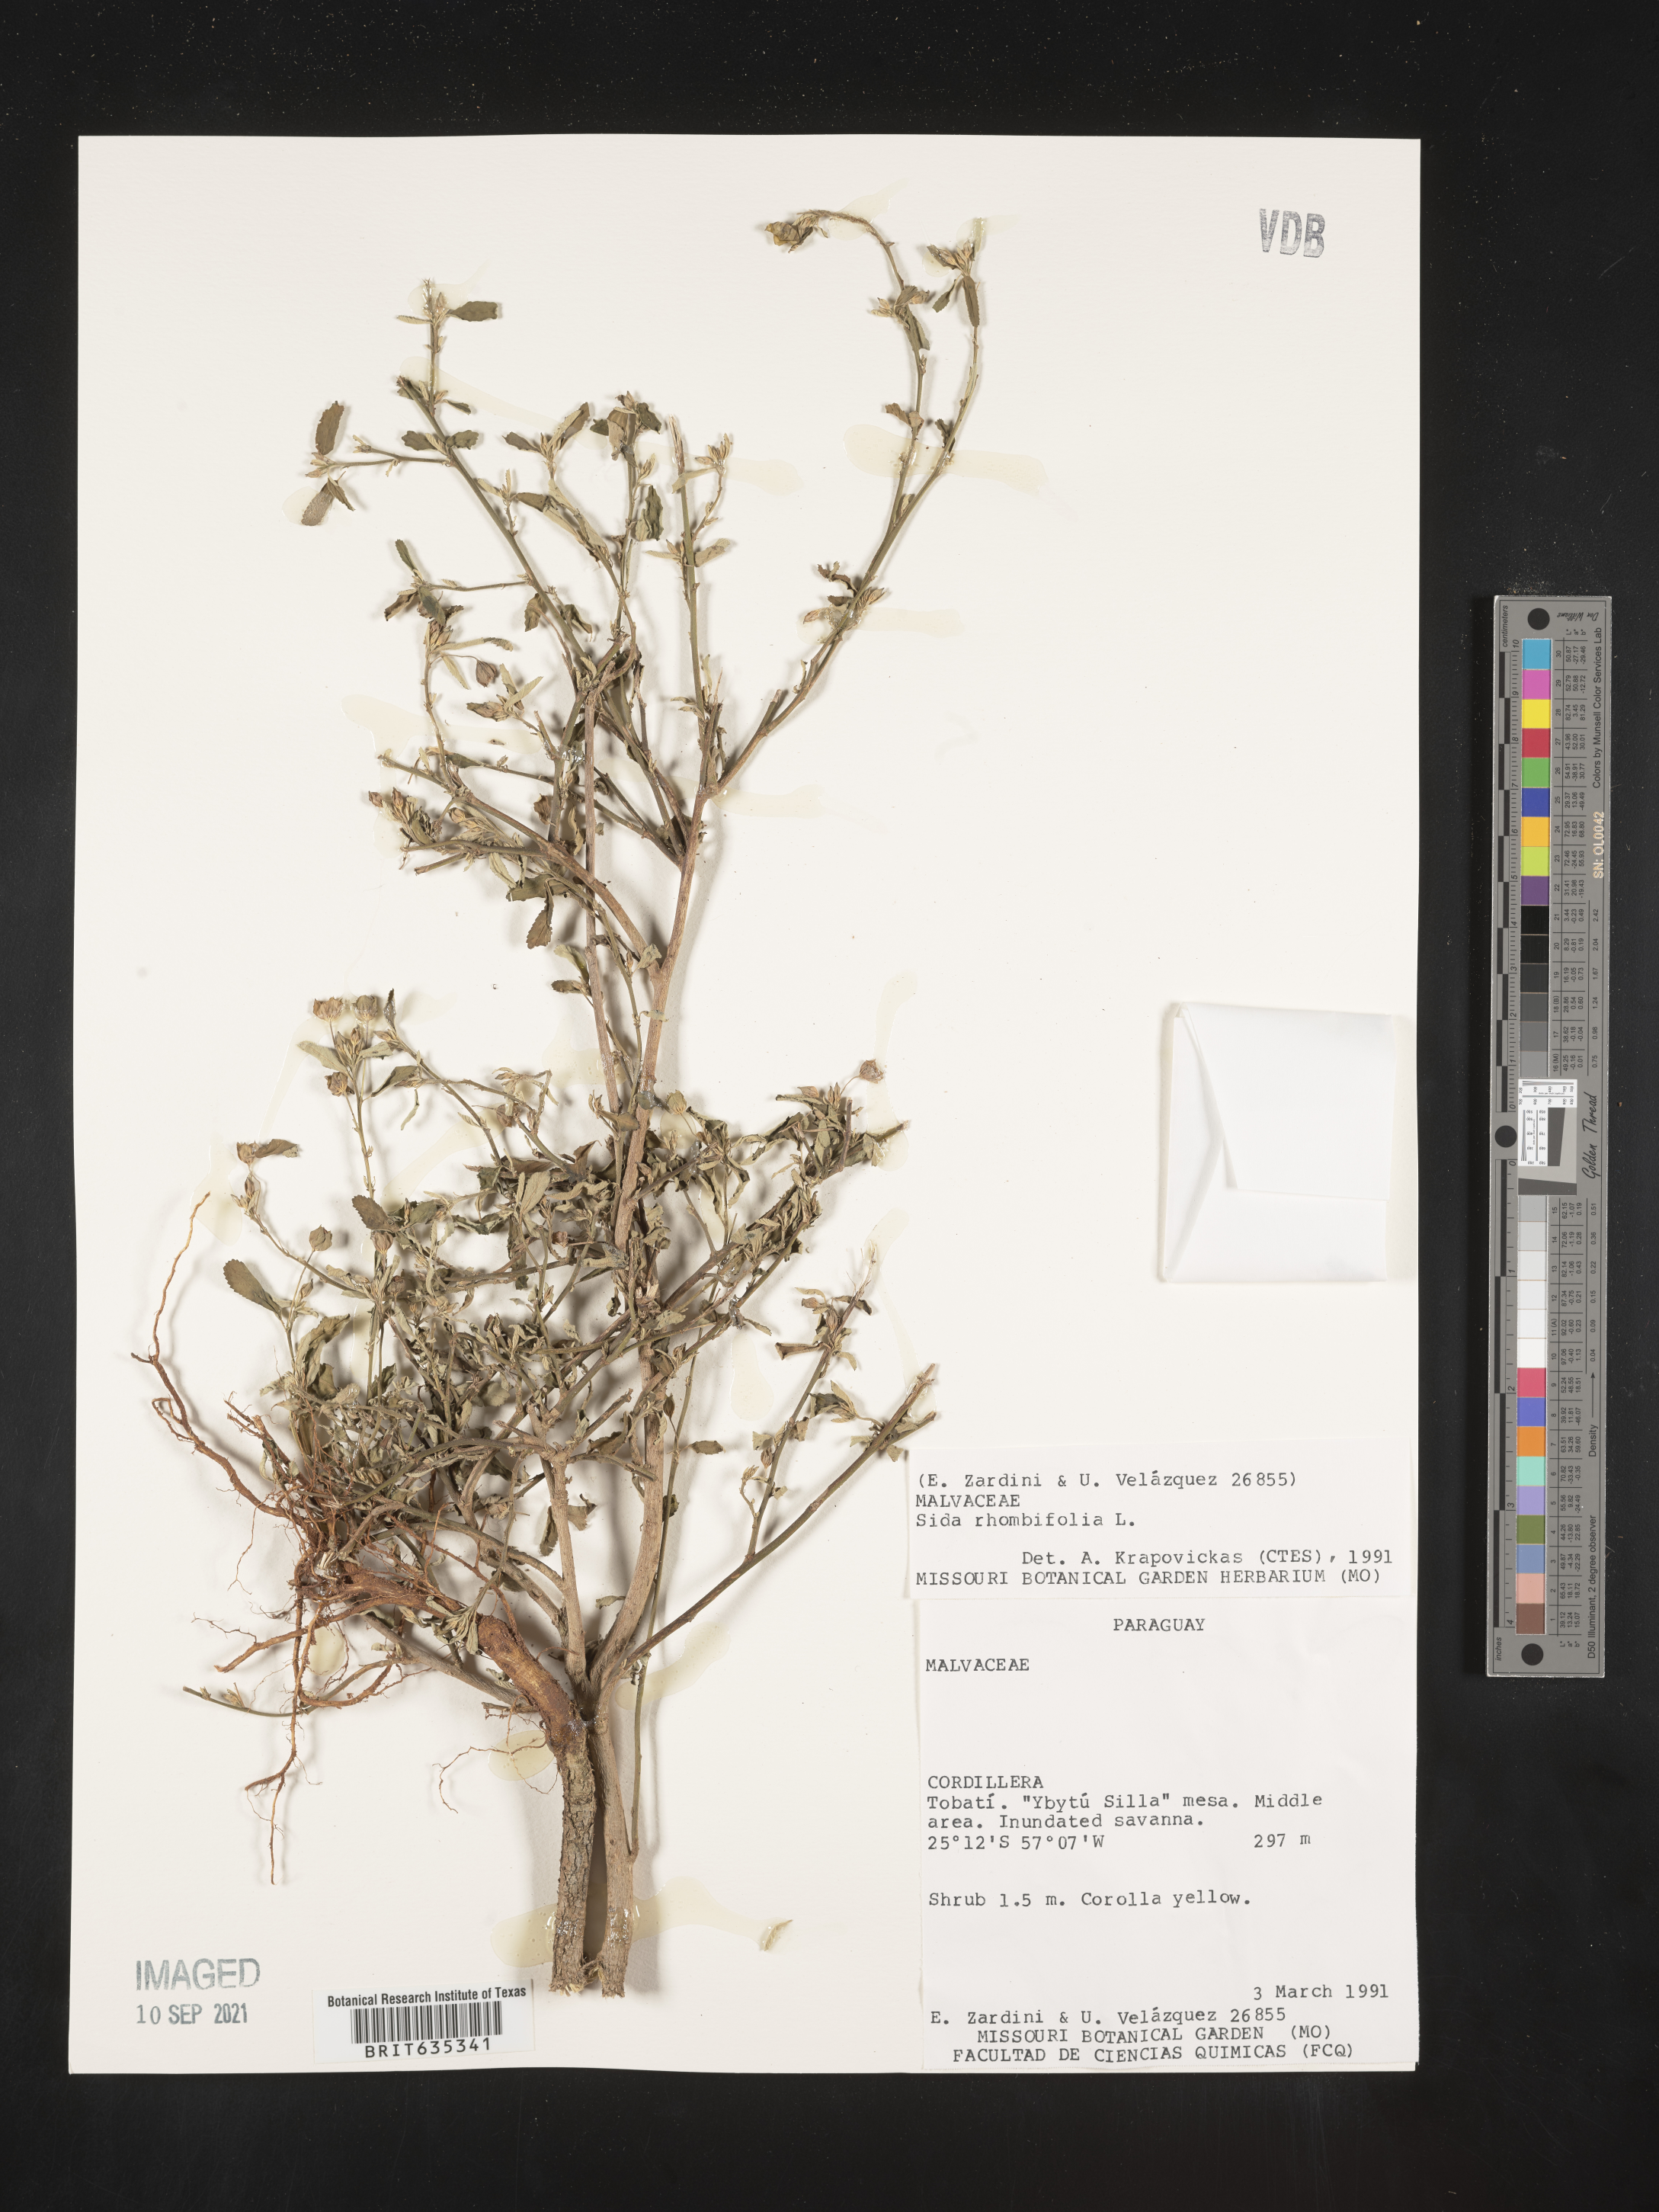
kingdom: Plantae
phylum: Tracheophyta
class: Magnoliopsida
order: Malvales
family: Malvaceae
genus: Sida
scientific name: Sida
